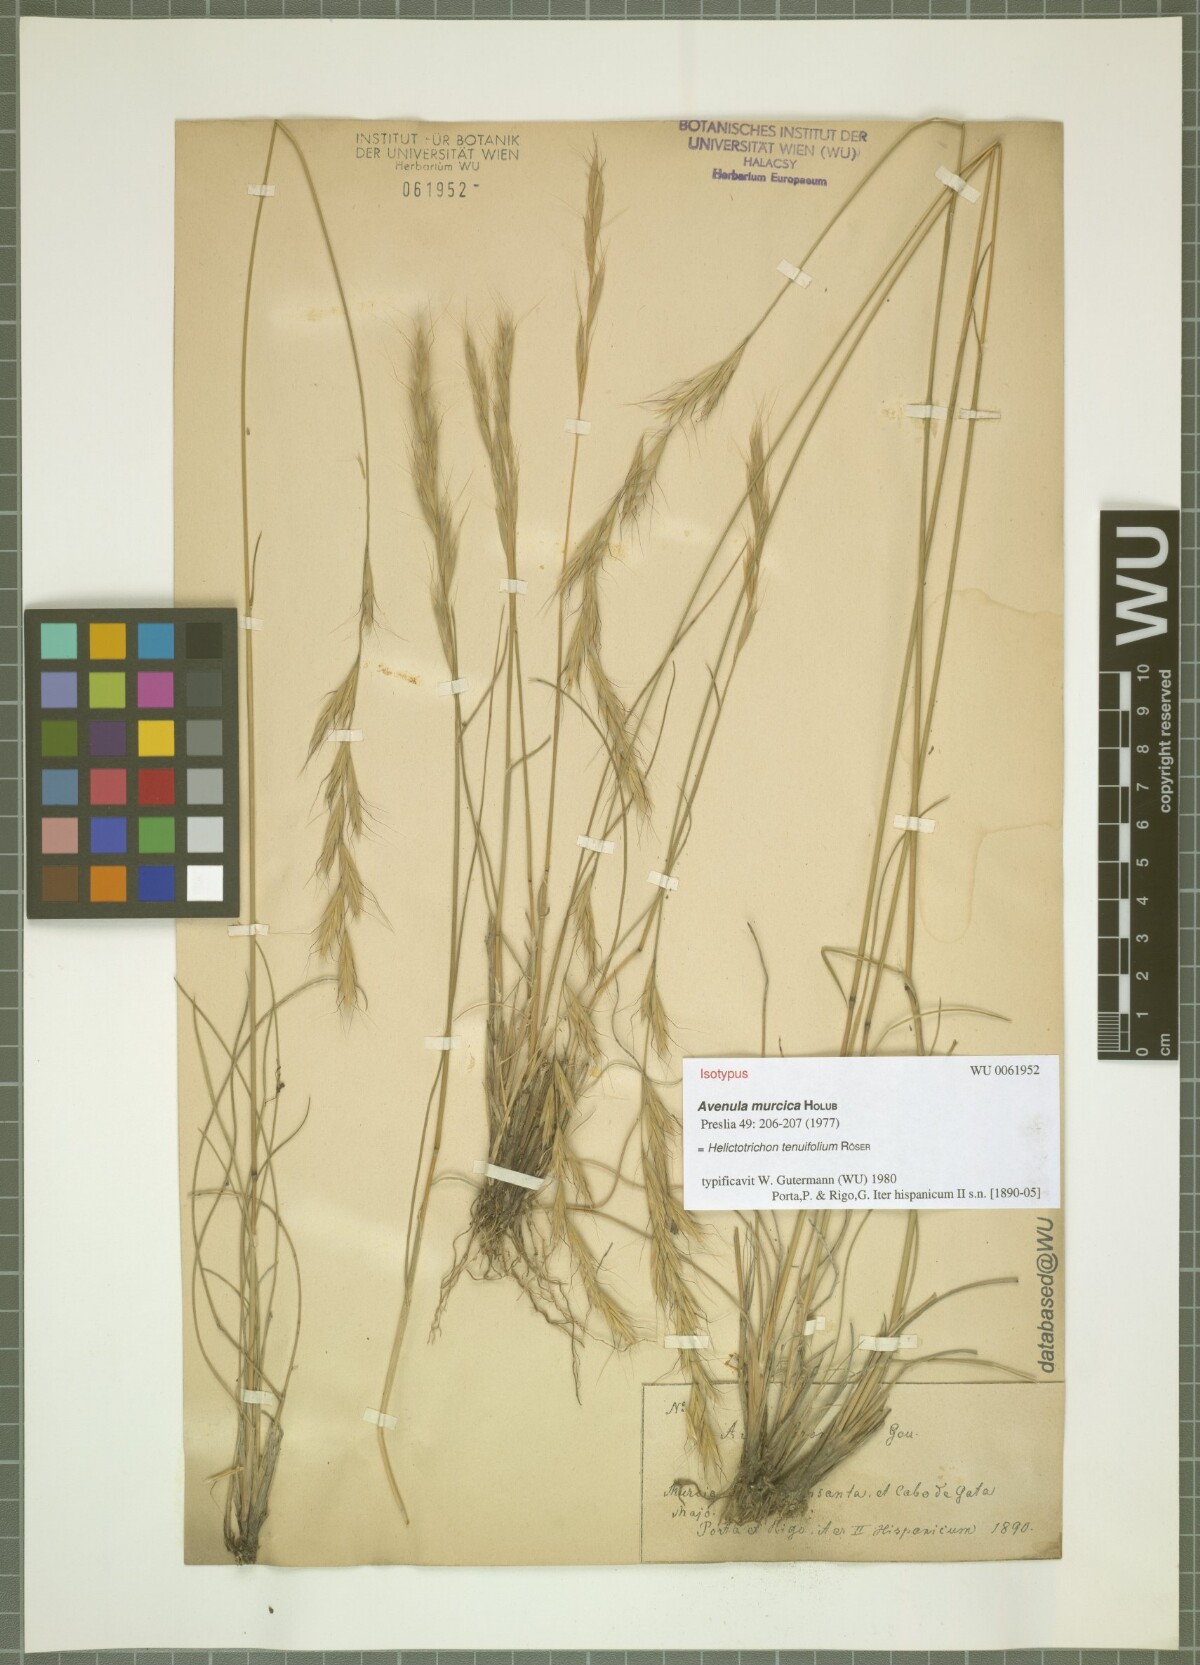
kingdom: Plantae
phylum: Tracheophyta
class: Liliopsida
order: Poales
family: Poaceae
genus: Helictochloa
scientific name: Helictochloa murcica
